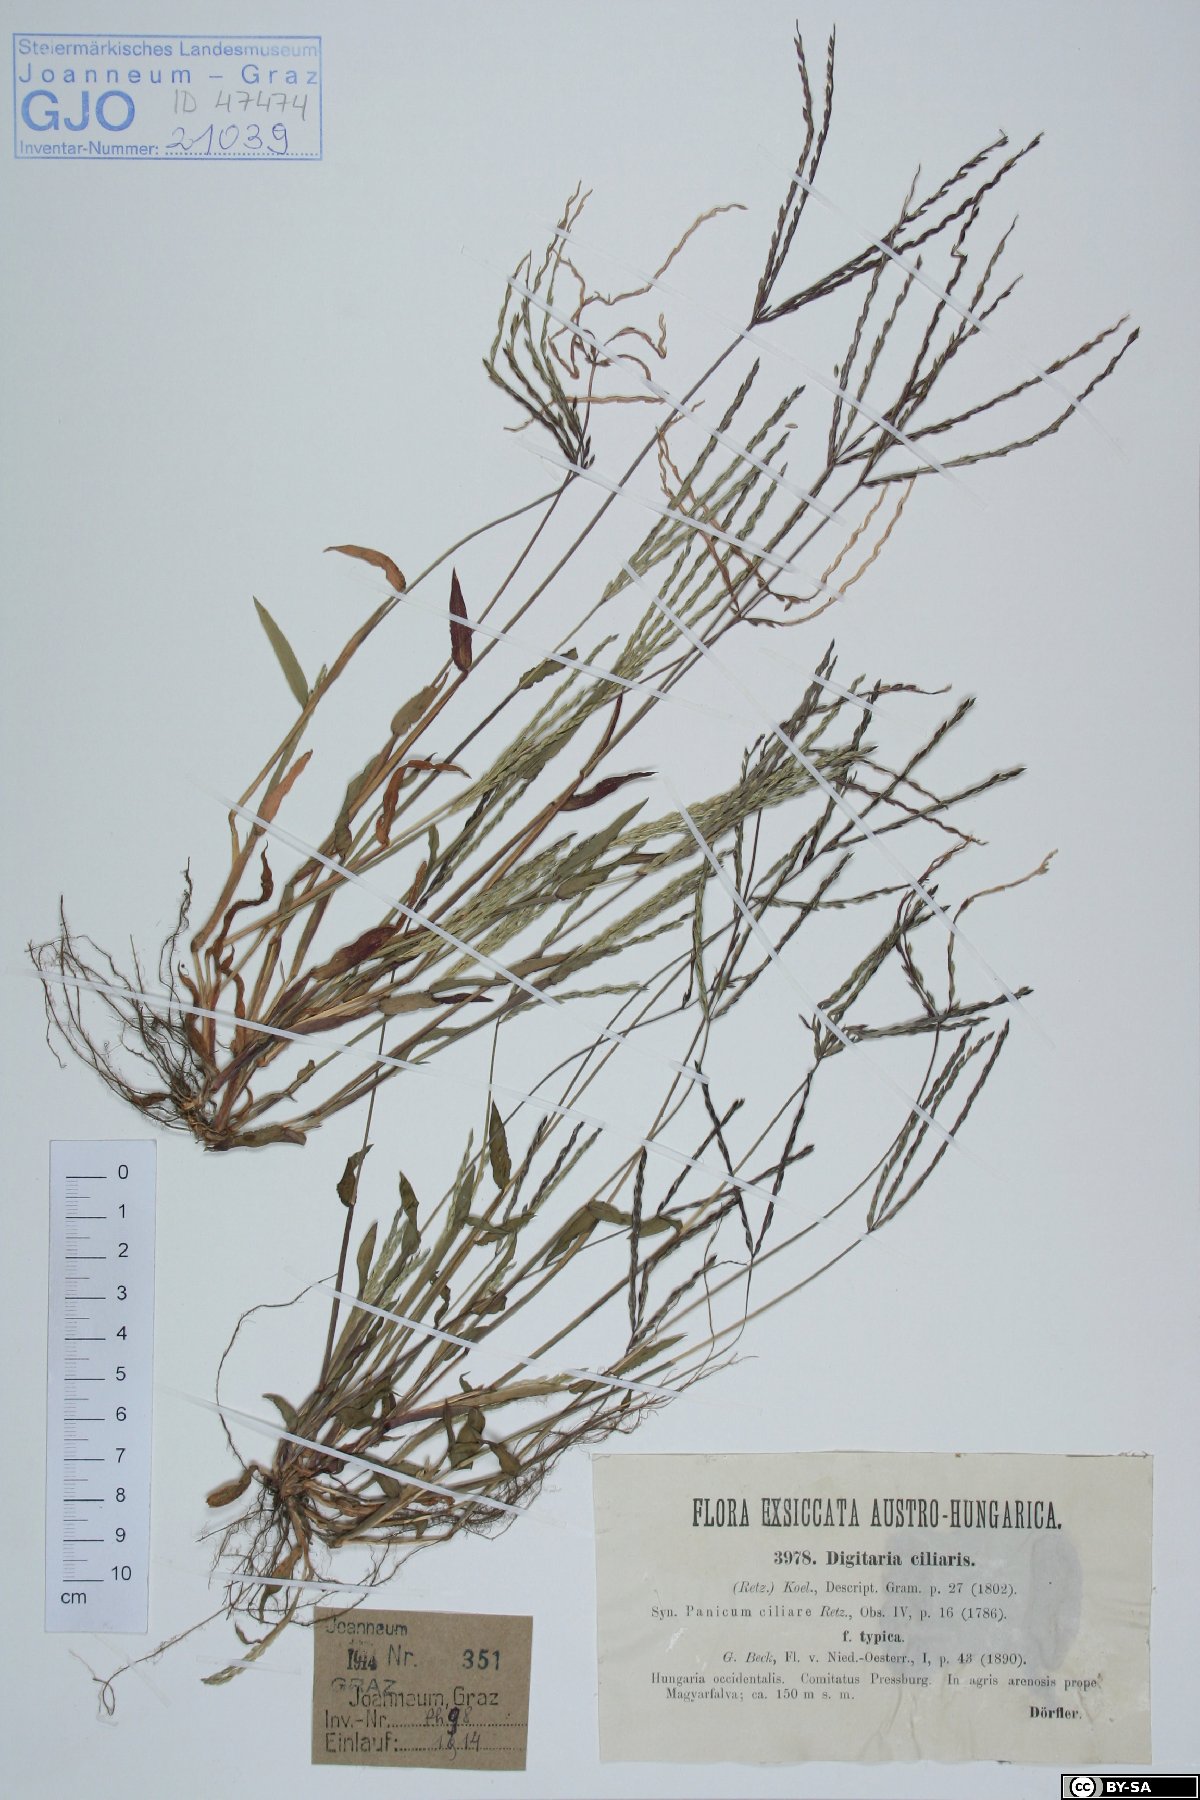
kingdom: Plantae
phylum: Tracheophyta
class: Liliopsida
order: Poales
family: Poaceae
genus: Digitaria
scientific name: Digitaria ciliaris
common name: Tropical finger-grass
